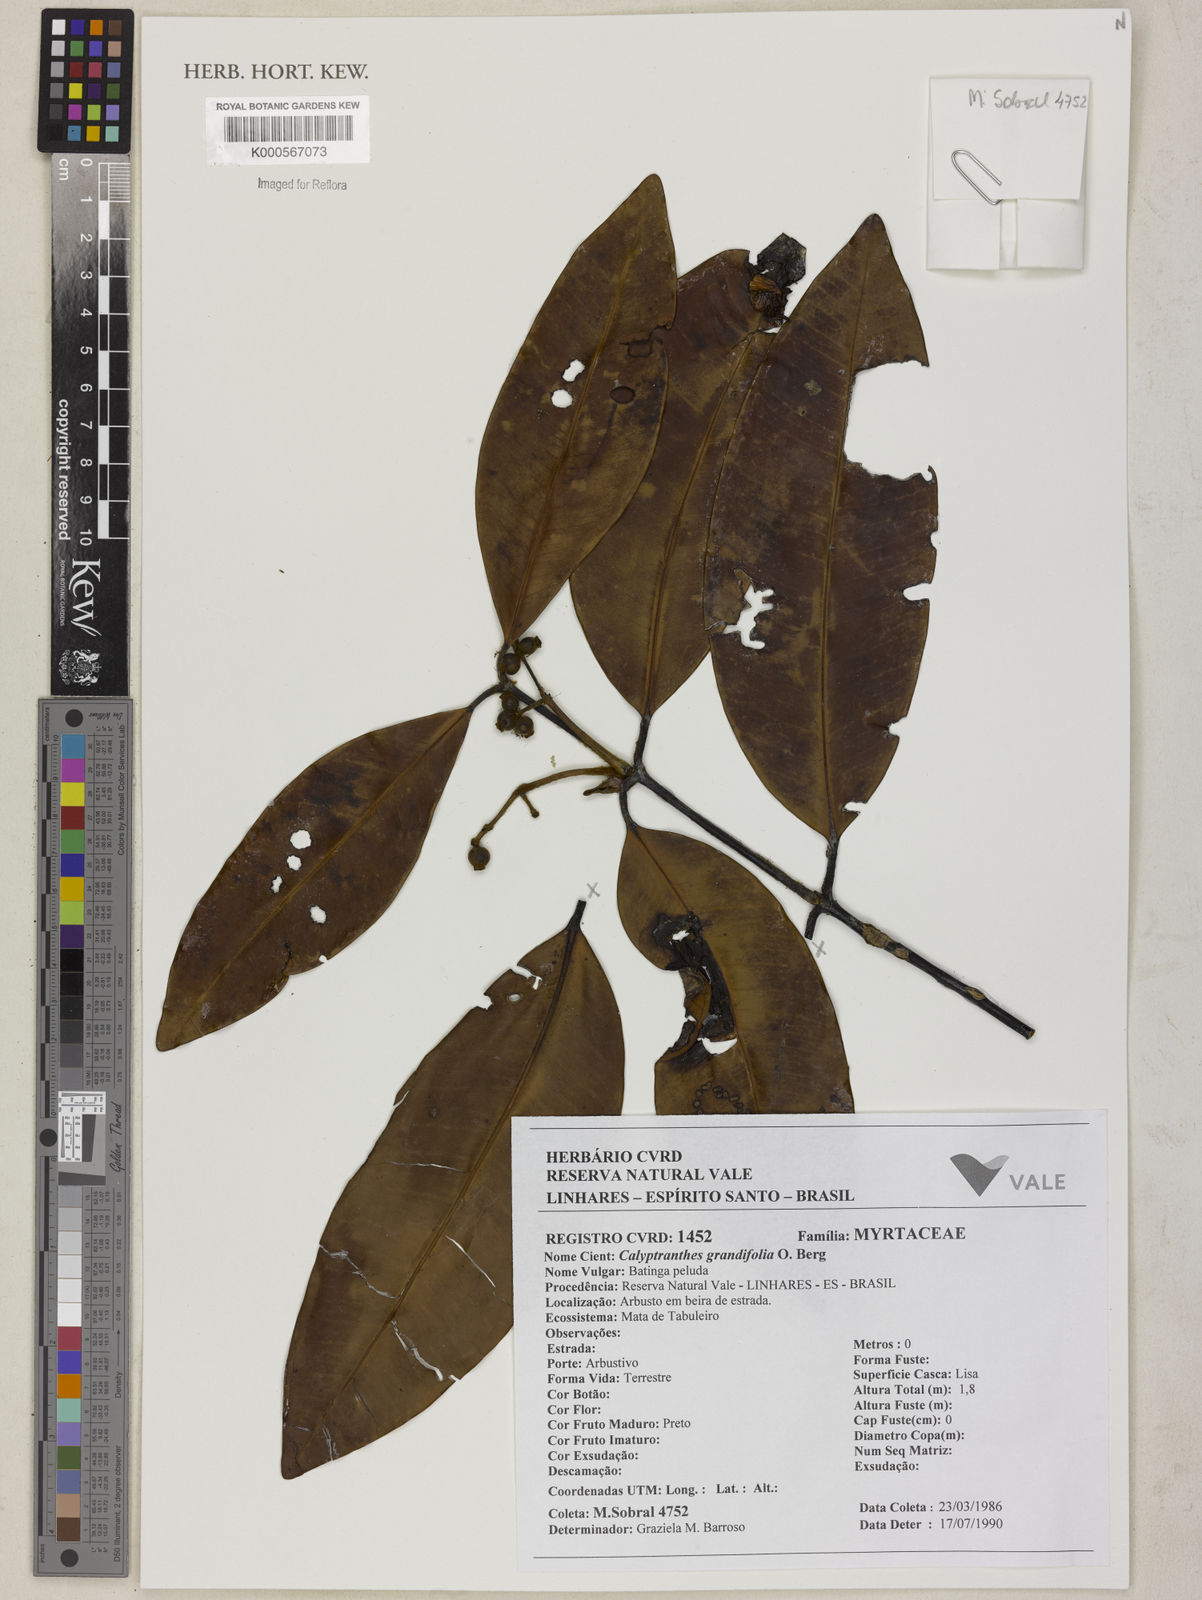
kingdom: Plantae
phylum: Tracheophyta
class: Magnoliopsida
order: Myrtales
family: Myrtaceae
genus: Calyptranthes
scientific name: Calyptranthes grandifolia
